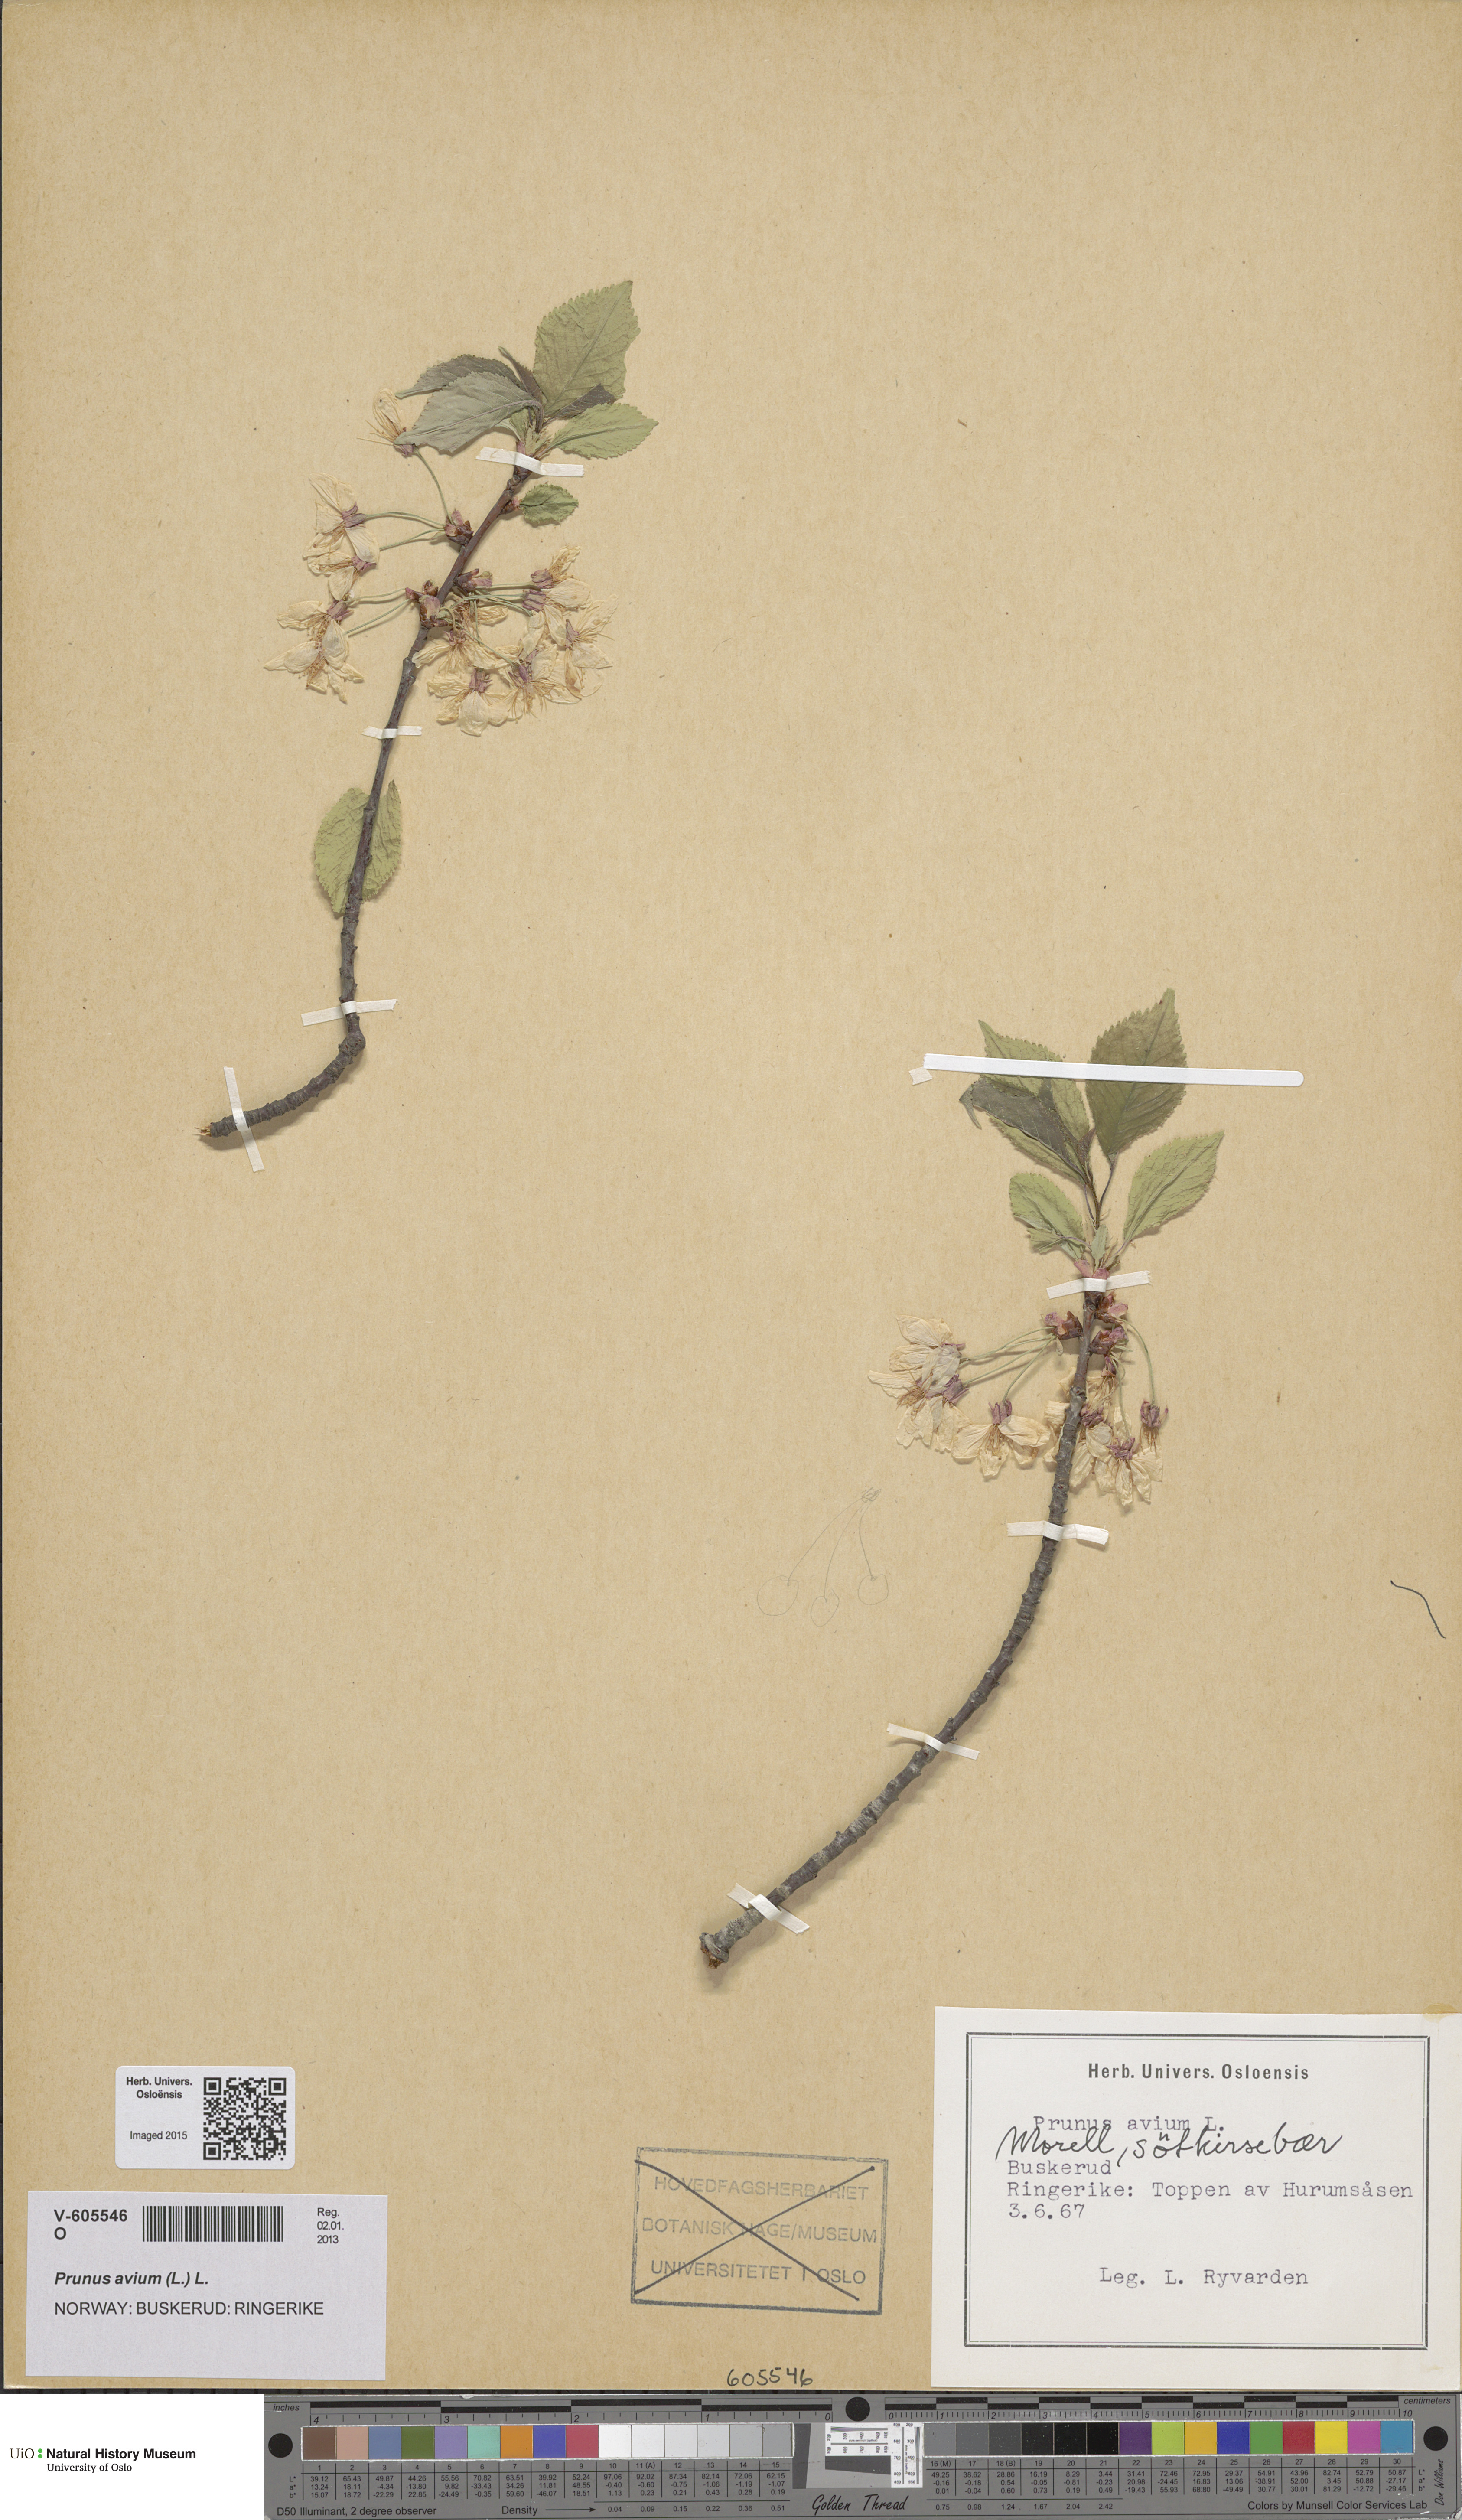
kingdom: Plantae
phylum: Tracheophyta
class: Magnoliopsida
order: Rosales
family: Rosaceae
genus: Prunus
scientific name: Prunus avium
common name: Sweet cherry
